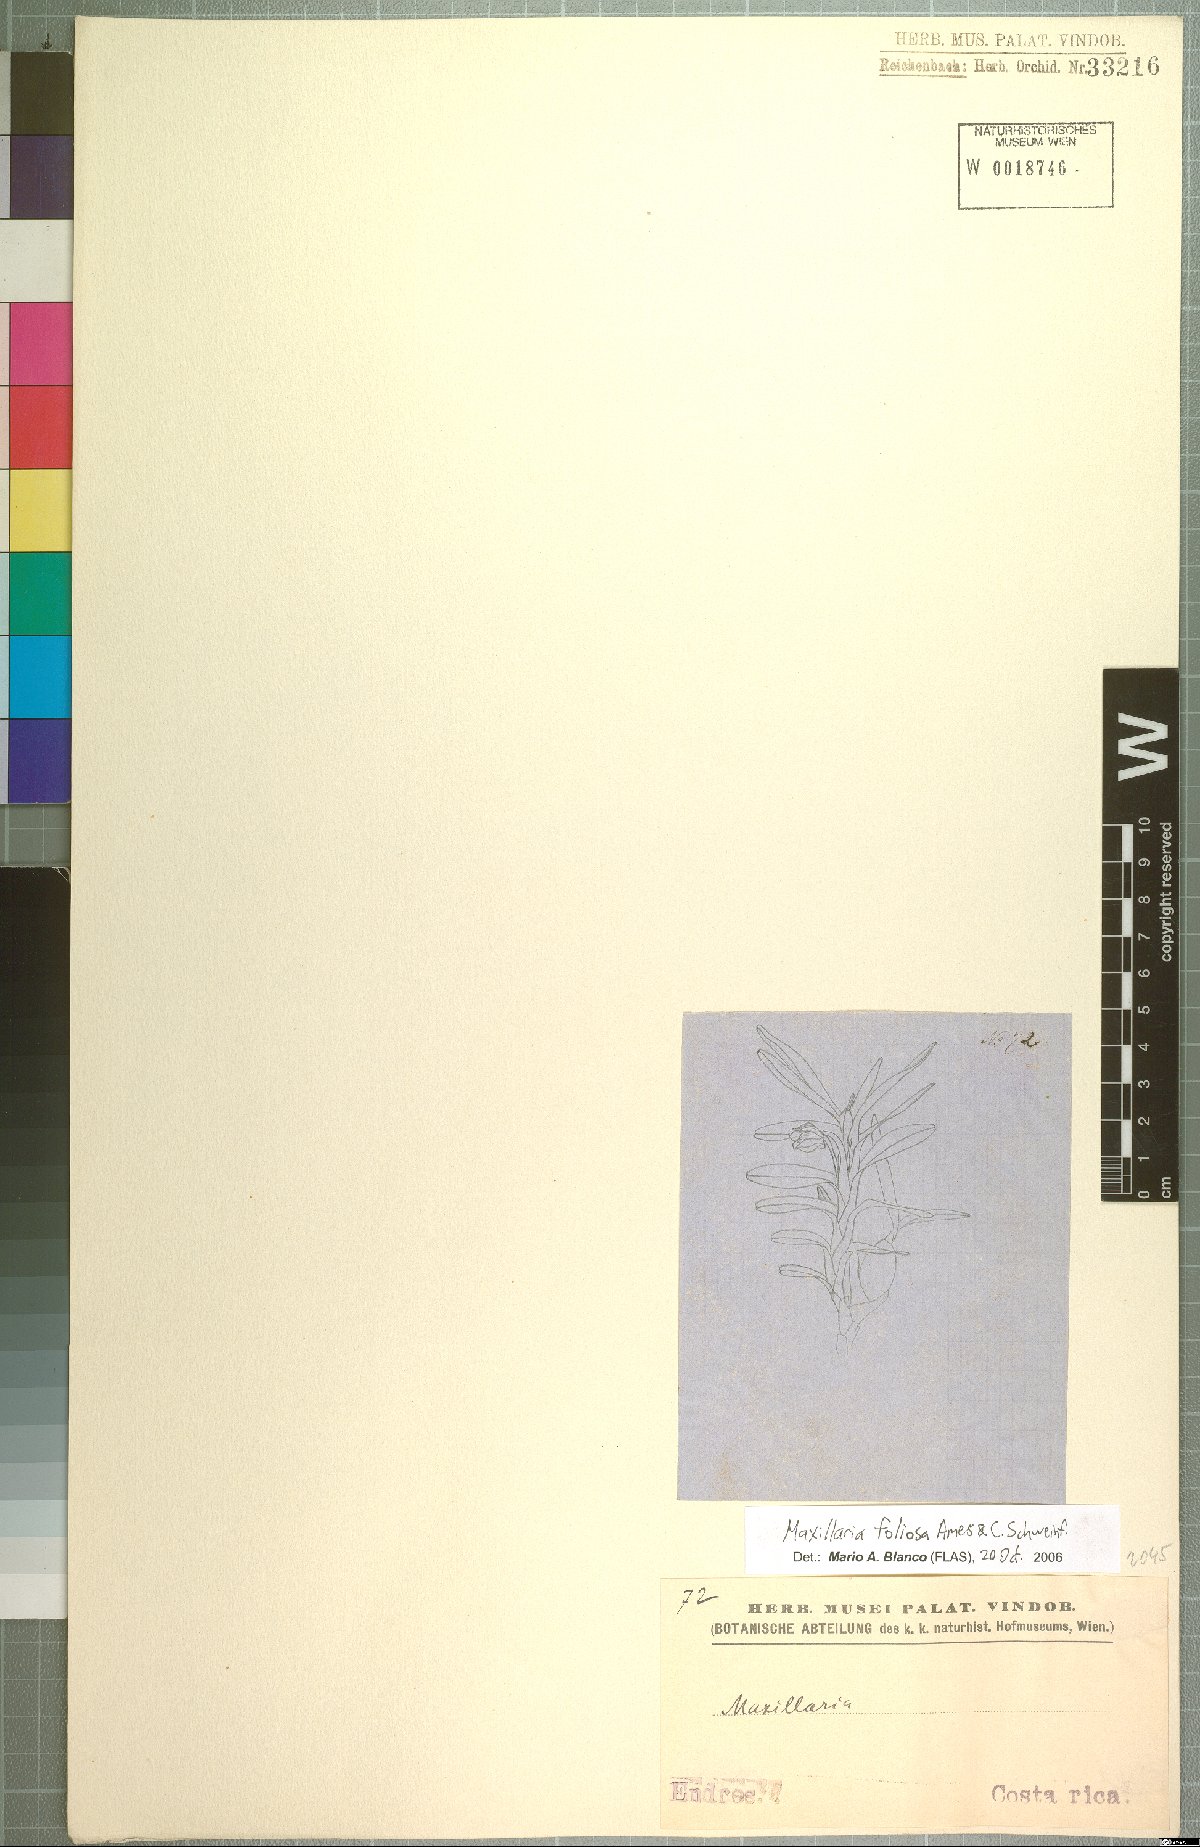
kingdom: Plantae
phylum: Tracheophyta
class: Liliopsida
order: Asparagales
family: Orchidaceae
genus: Maxillaria
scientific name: Maxillaria foliosa
